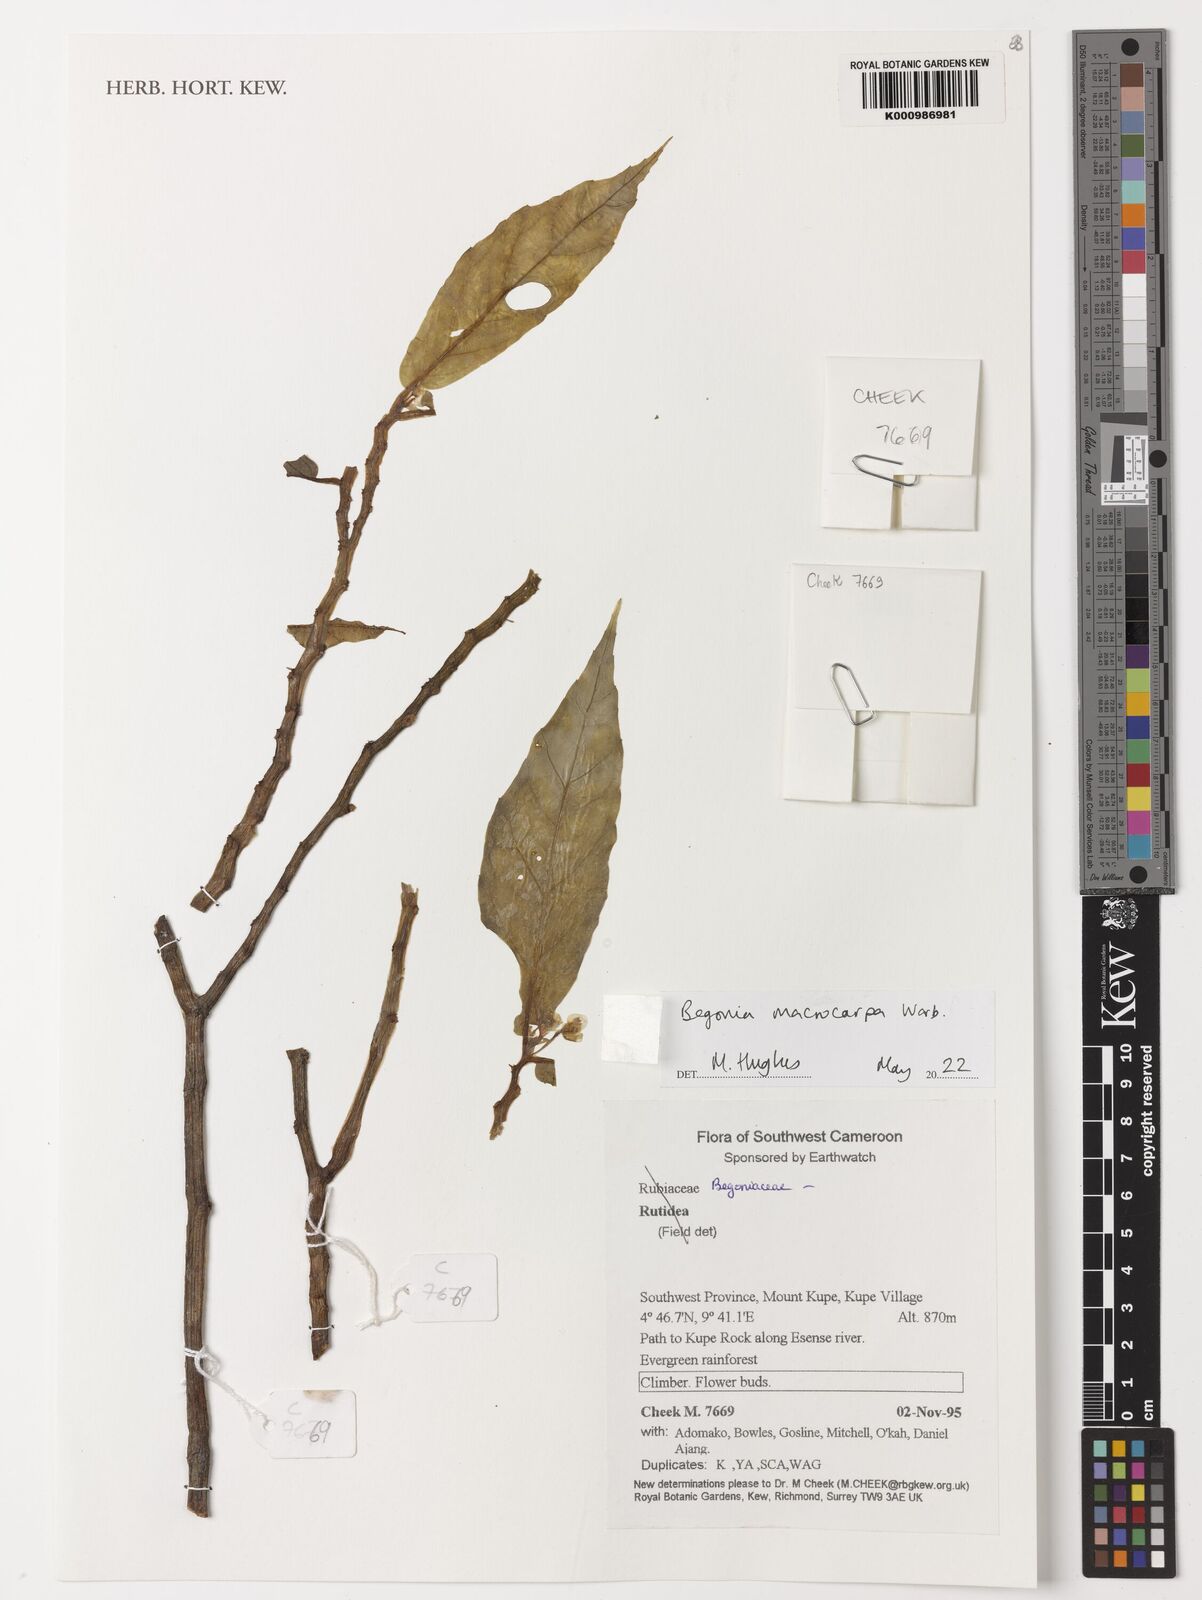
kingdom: Plantae
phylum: Tracheophyta
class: Magnoliopsida
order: Cucurbitales
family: Begoniaceae
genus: Begonia
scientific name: Begonia macrocarpa
